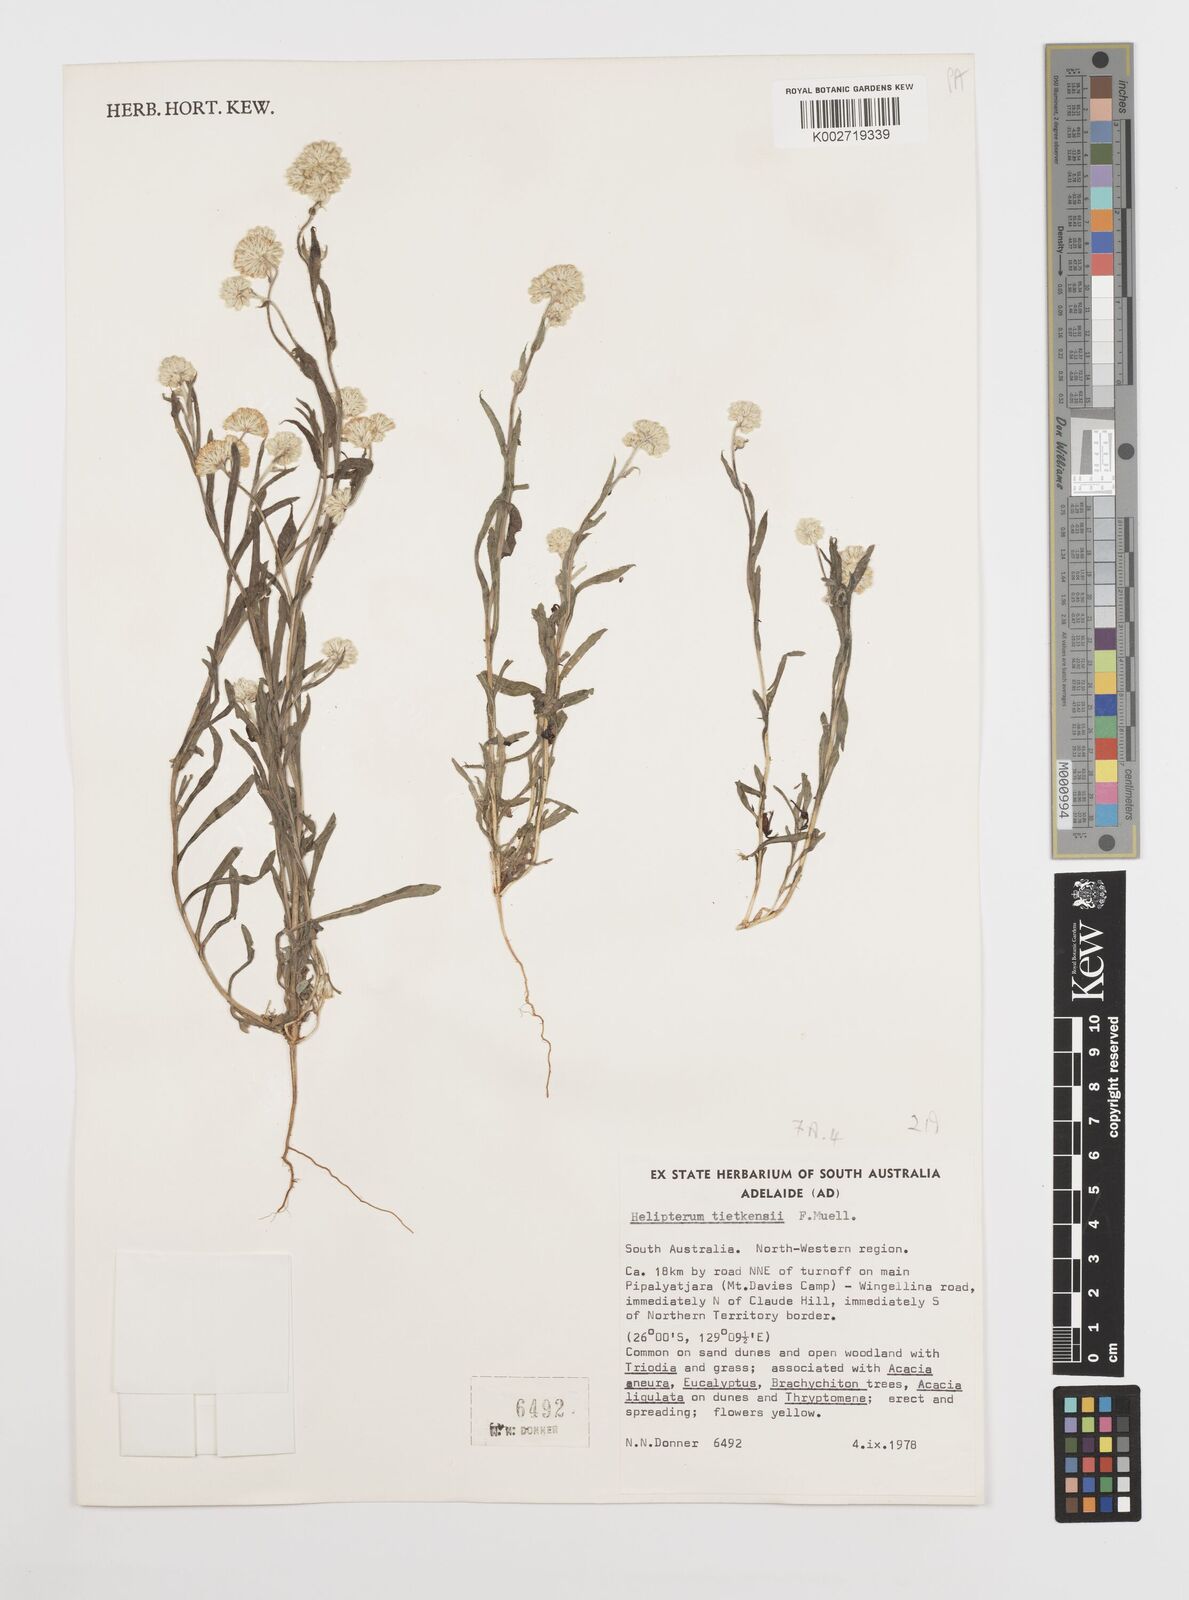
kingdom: Plantae
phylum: Tracheophyta
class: Magnoliopsida
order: Asterales
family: Asteraceae
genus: Rhodanthe
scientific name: Rhodanthe tietkensii
